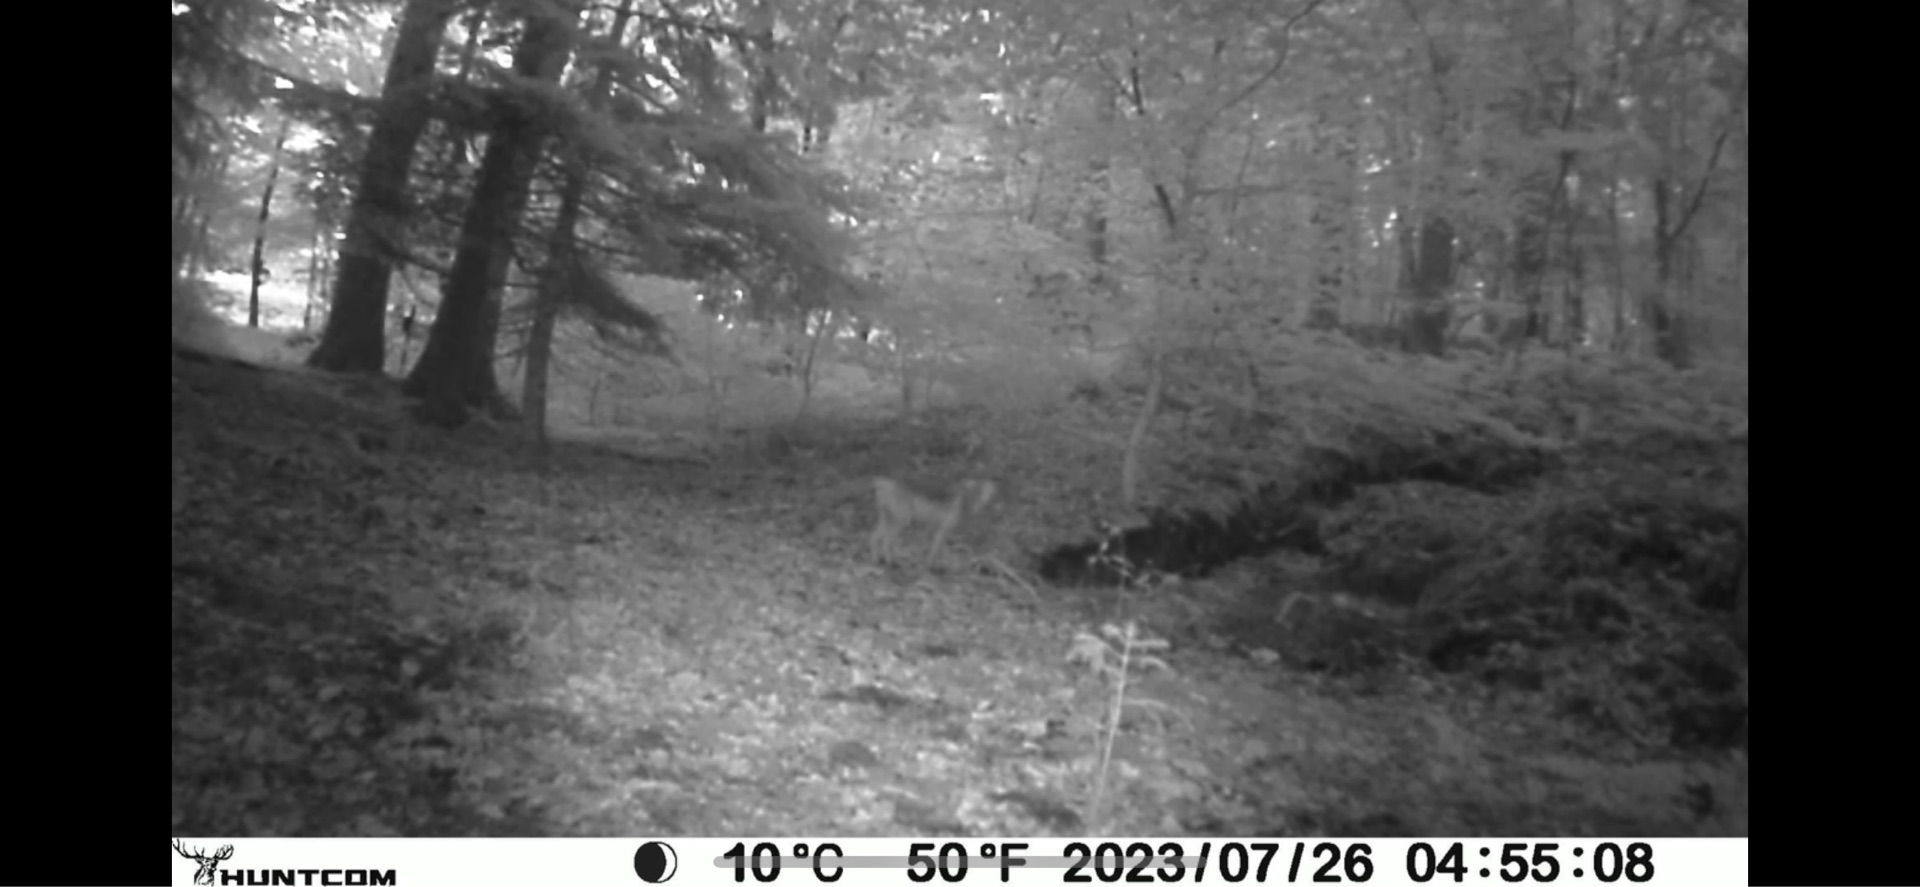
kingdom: Animalia
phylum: Chordata
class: Mammalia
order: Carnivora
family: Canidae
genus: Vulpes
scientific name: Vulpes vulpes
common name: Ræv
